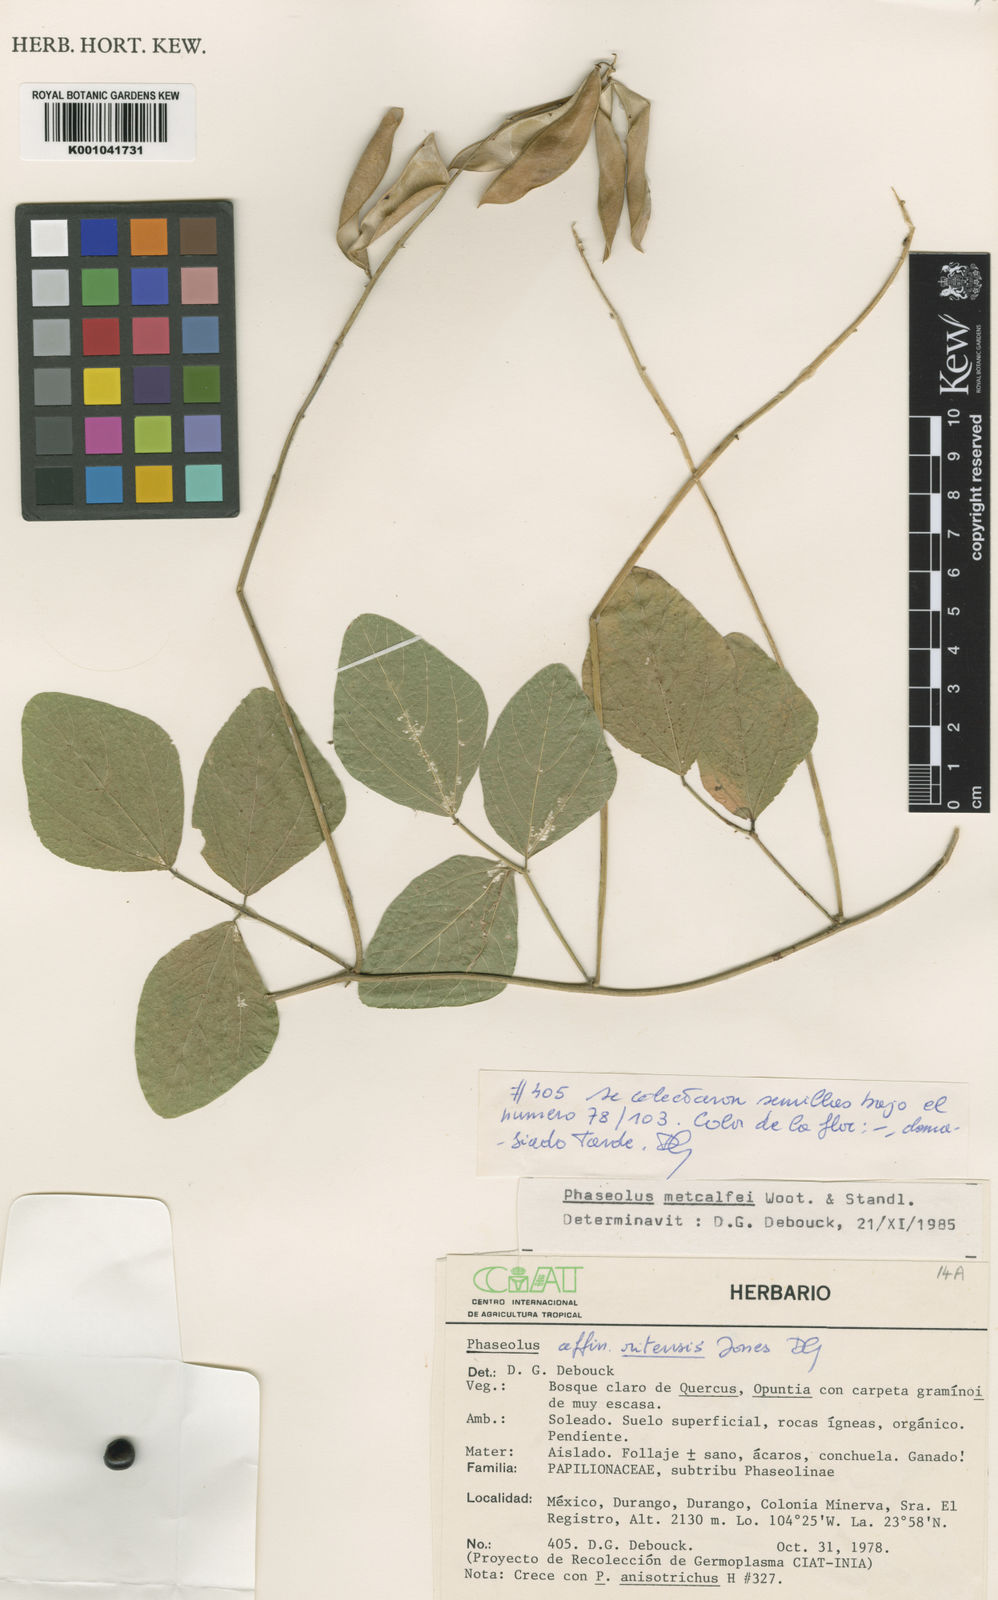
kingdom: Plantae
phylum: Tracheophyta
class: Magnoliopsida
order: Fabales
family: Fabaceae
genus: Phaseolus
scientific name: Phaseolus
